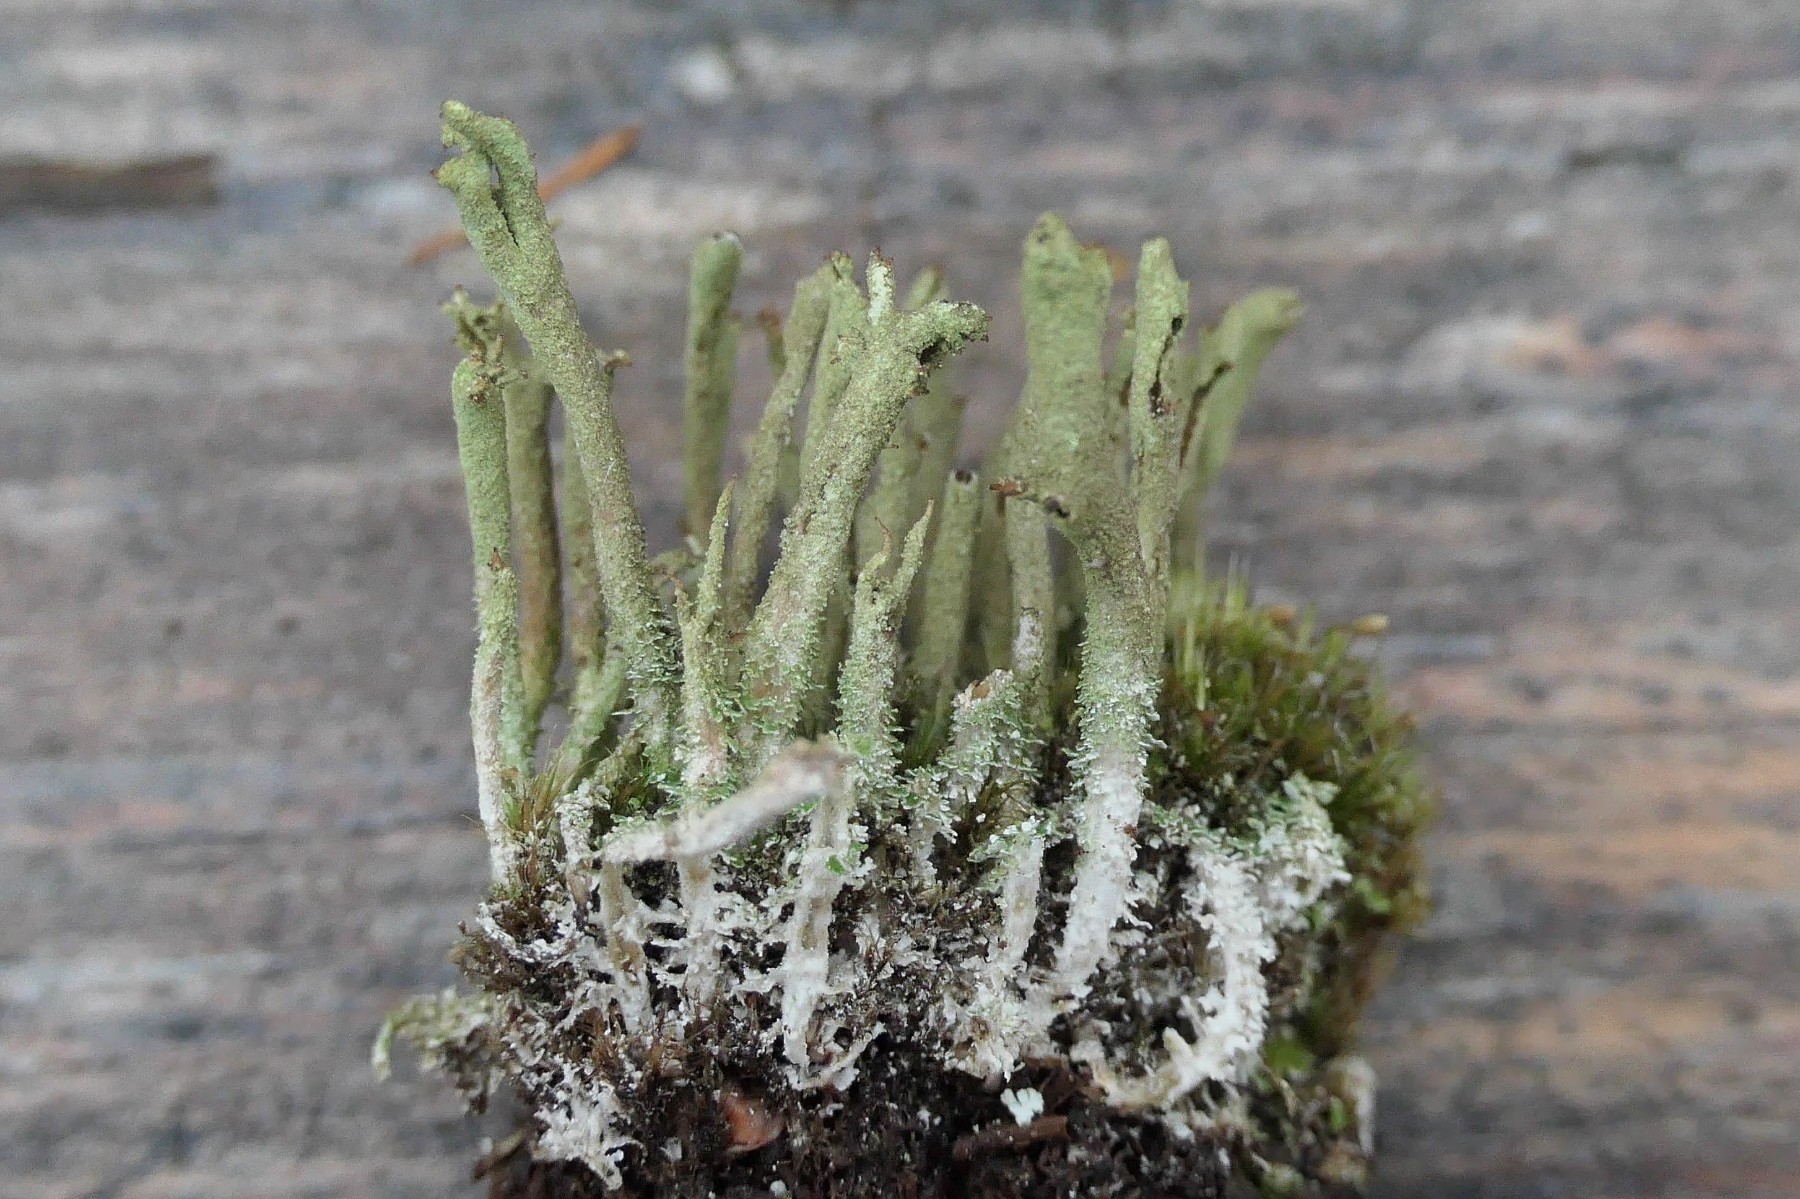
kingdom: Fungi
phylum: Ascomycota
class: Lecanoromycetes
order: Lecanorales
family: Cladoniaceae
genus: Cladonia
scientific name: Cladonia cenotea
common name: pudret bægerlav
